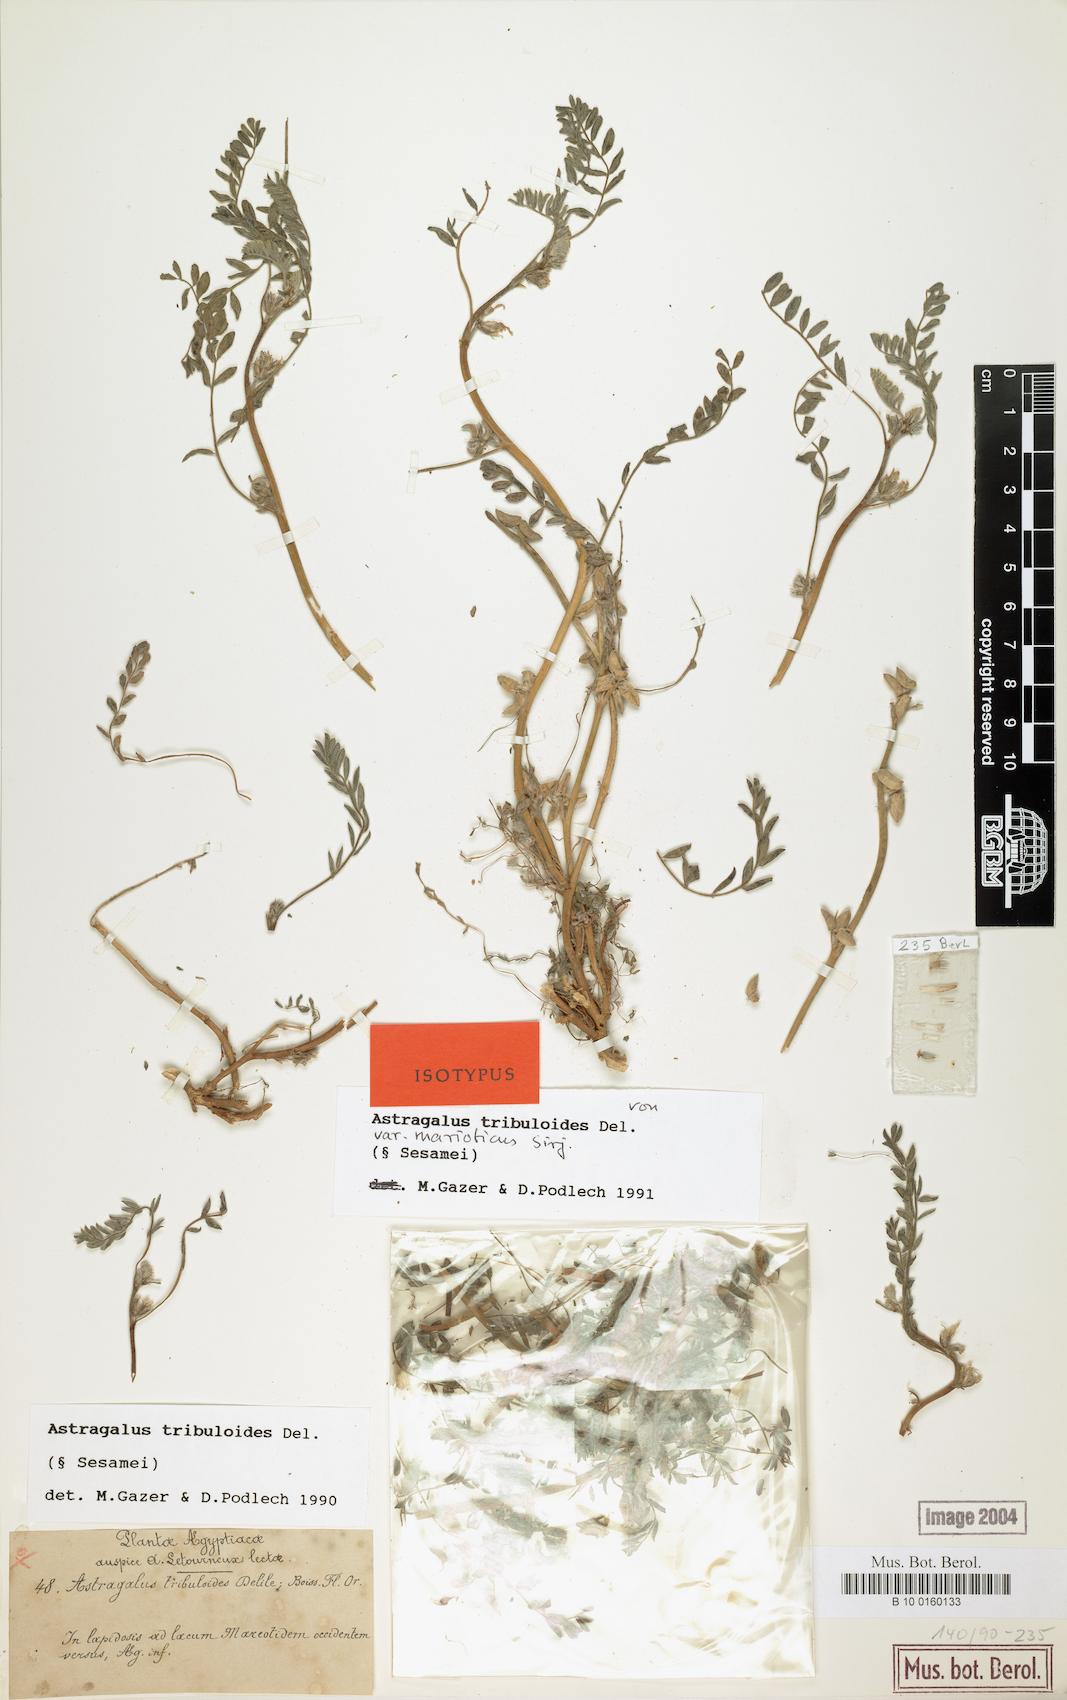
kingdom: Plantae
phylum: Tracheophyta
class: Magnoliopsida
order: Fabales
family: Fabaceae
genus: Astragalus
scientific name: Astragalus tribuloides
